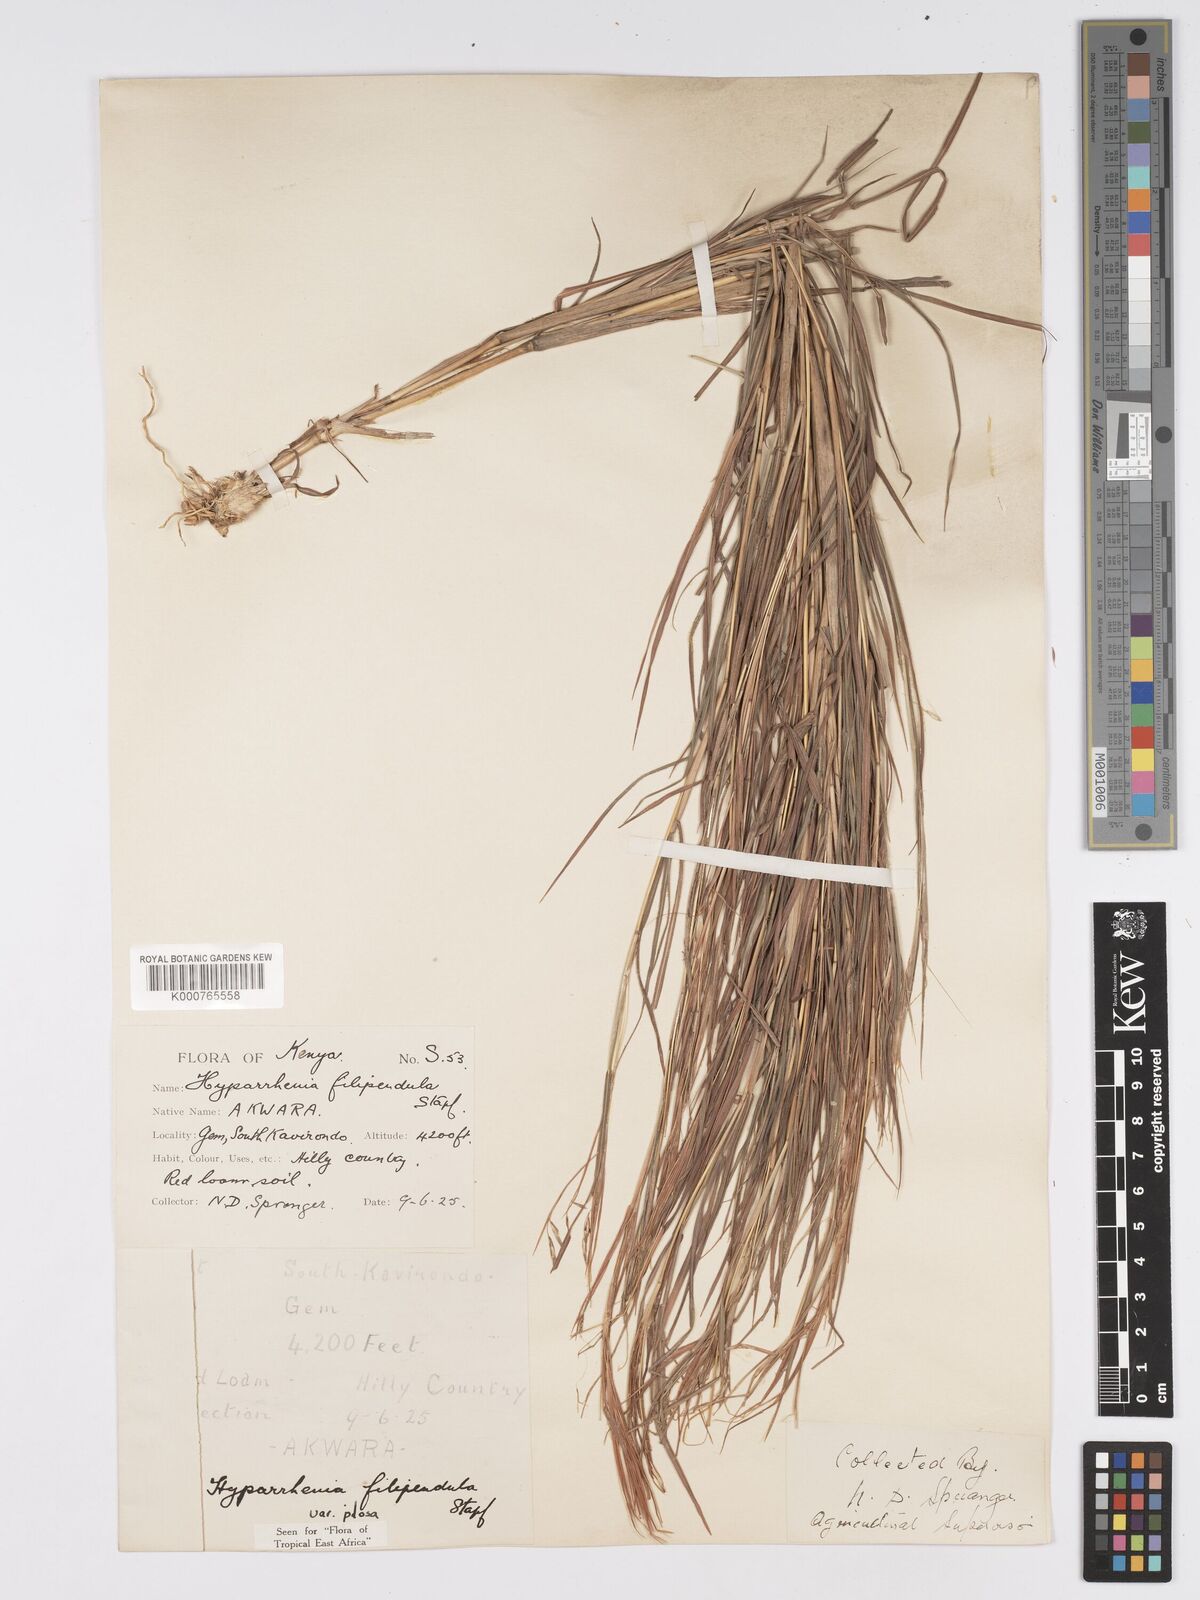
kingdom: Plantae
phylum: Tracheophyta
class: Liliopsida
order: Poales
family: Poaceae
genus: Hyparrhenia
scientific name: Hyparrhenia filipendula
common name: Tambookie grass
